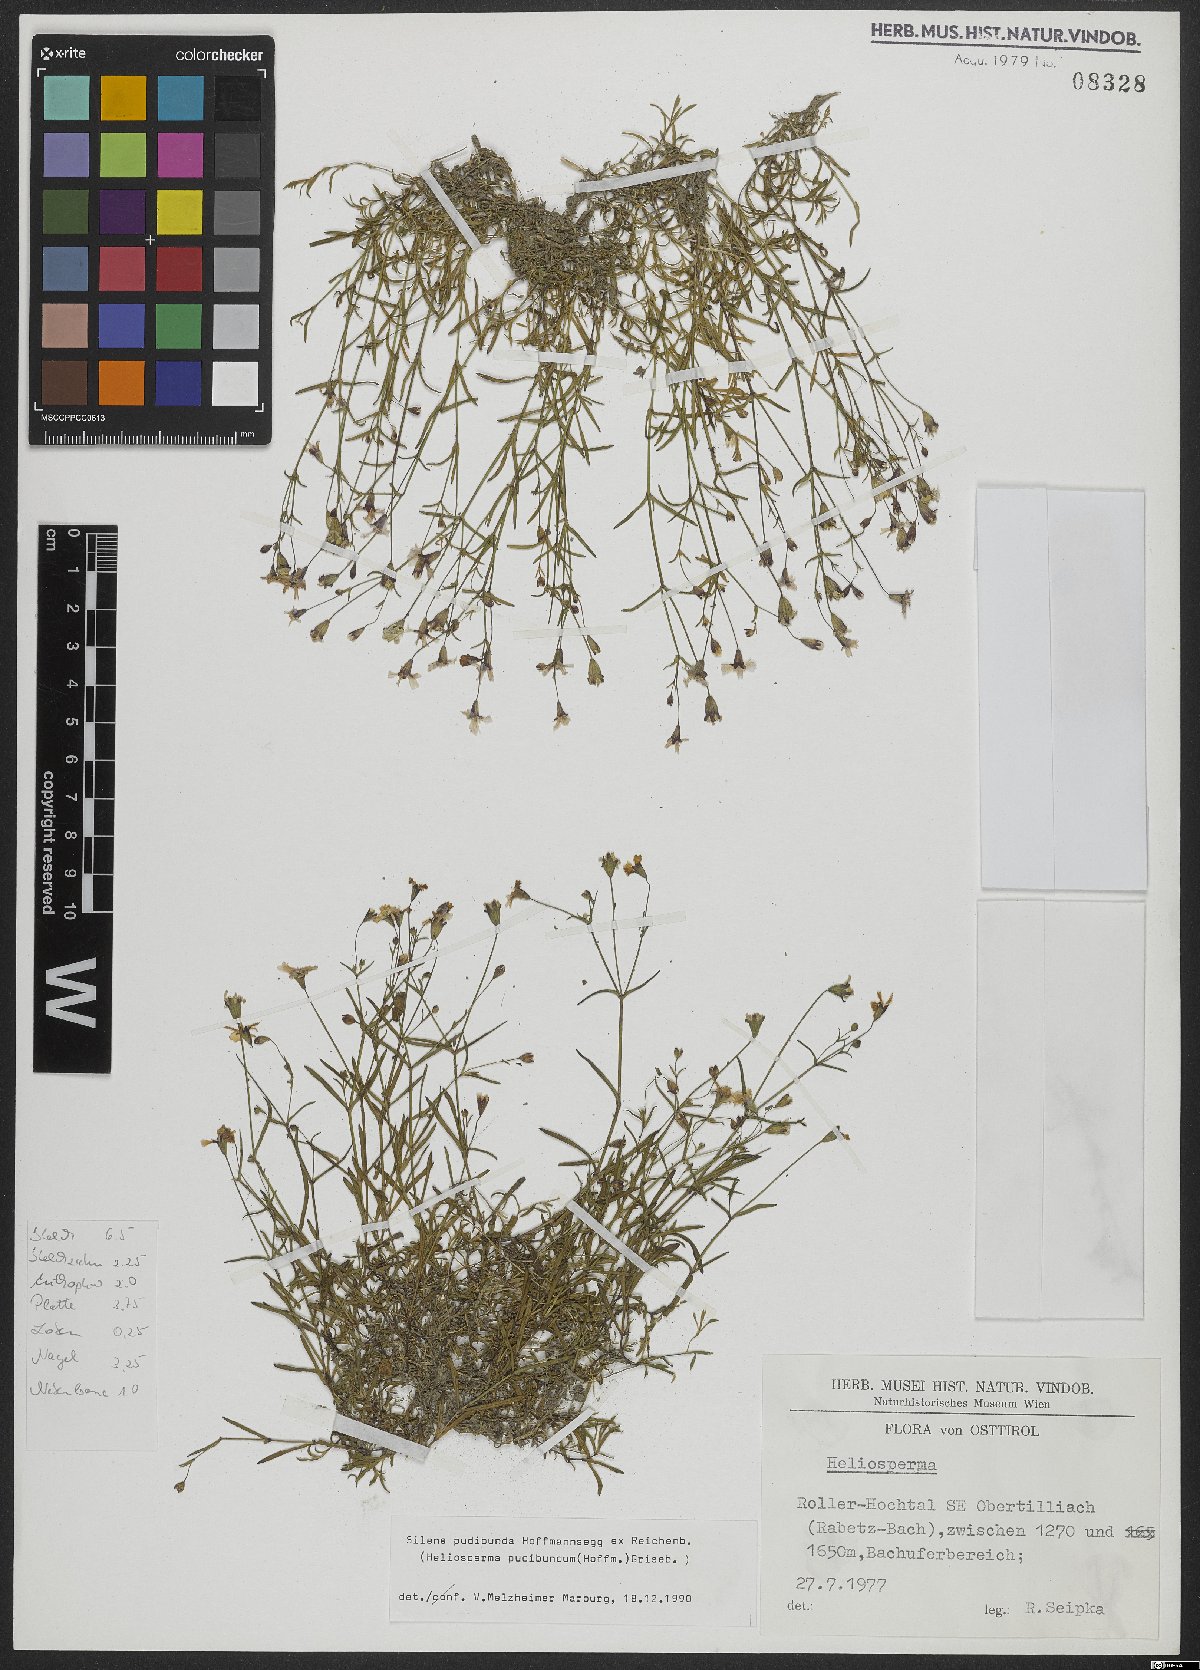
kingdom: Plantae
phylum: Tracheophyta
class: Magnoliopsida
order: Caryophyllales
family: Caryophyllaceae
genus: Heliosperma
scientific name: Heliosperma pudibundum
